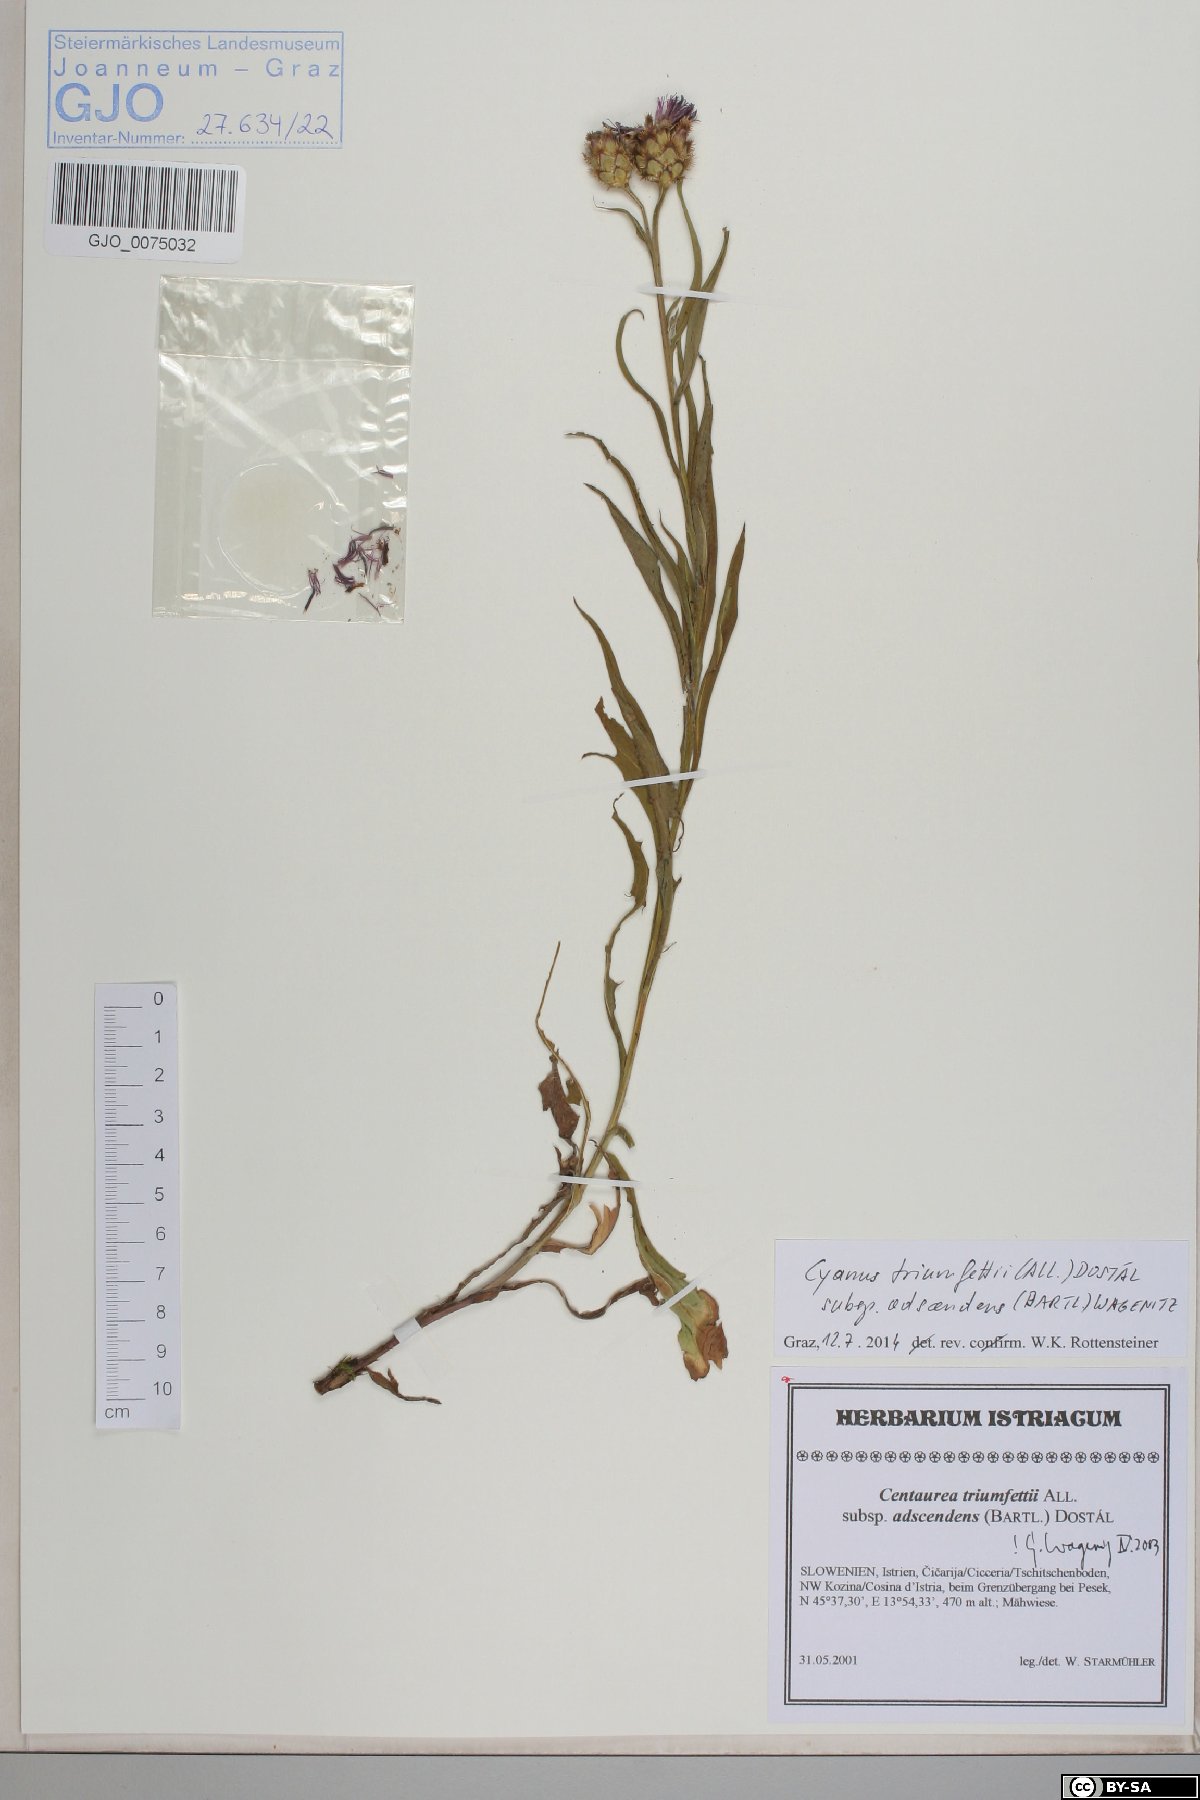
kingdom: Plantae
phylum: Tracheophyta
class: Magnoliopsida
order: Asterales
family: Asteraceae
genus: Centaurea
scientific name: Centaurea triumfettii
